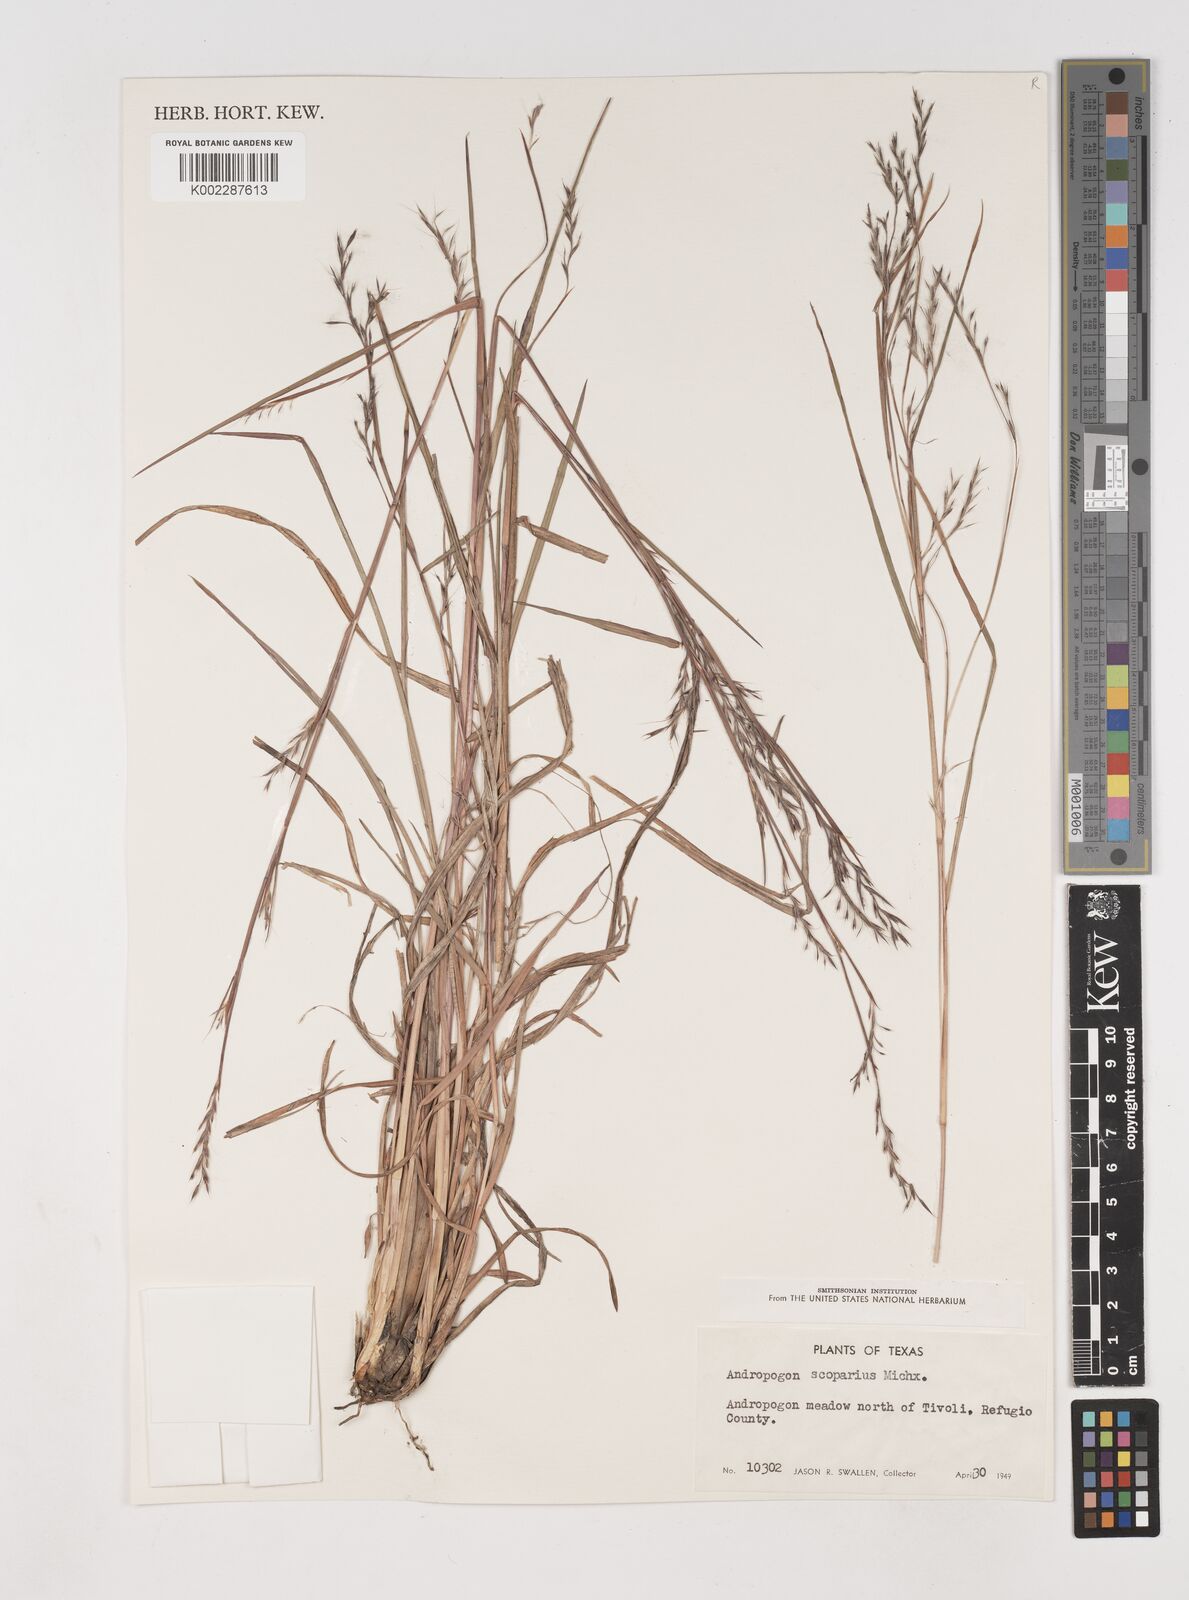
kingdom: Plantae
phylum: Tracheophyta
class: Liliopsida
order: Poales
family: Poaceae
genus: Schizachyrium
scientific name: Schizachyrium scoparium
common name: Little bluestem
